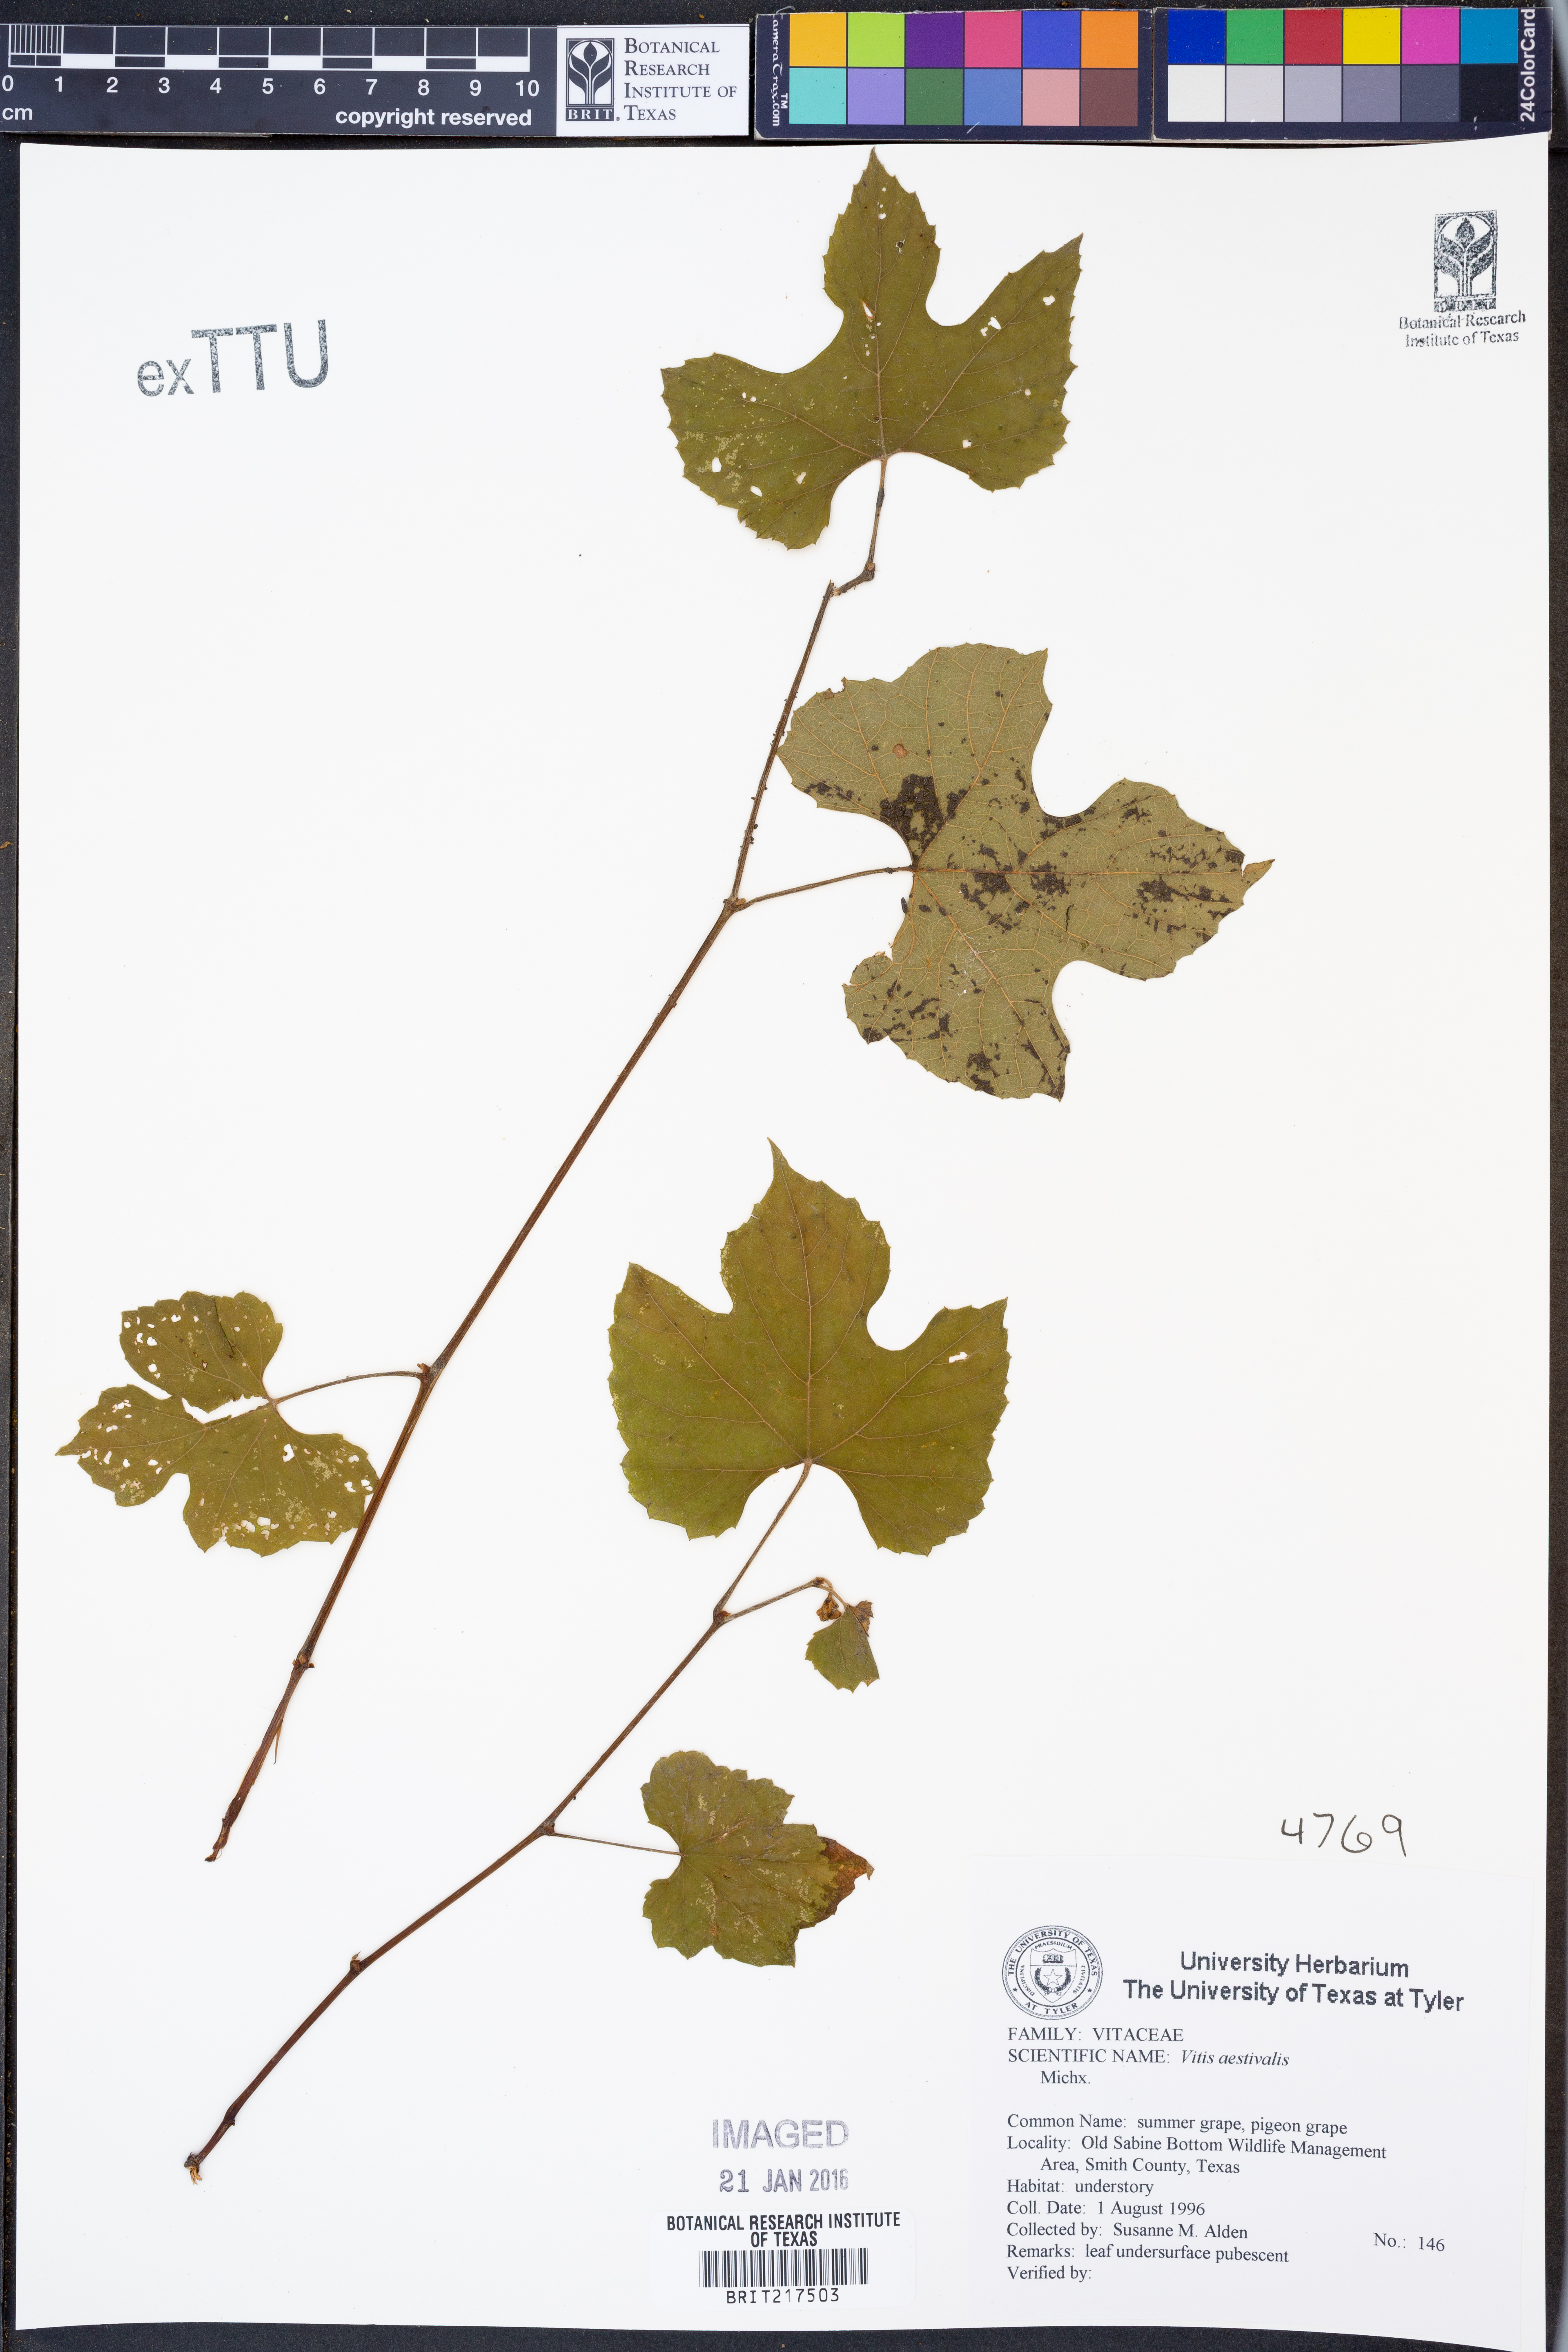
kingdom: Plantae
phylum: Tracheophyta
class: Magnoliopsida
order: Vitales
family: Vitaceae
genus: Vitis
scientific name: Vitis aestivalis
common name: Pigeon grape
